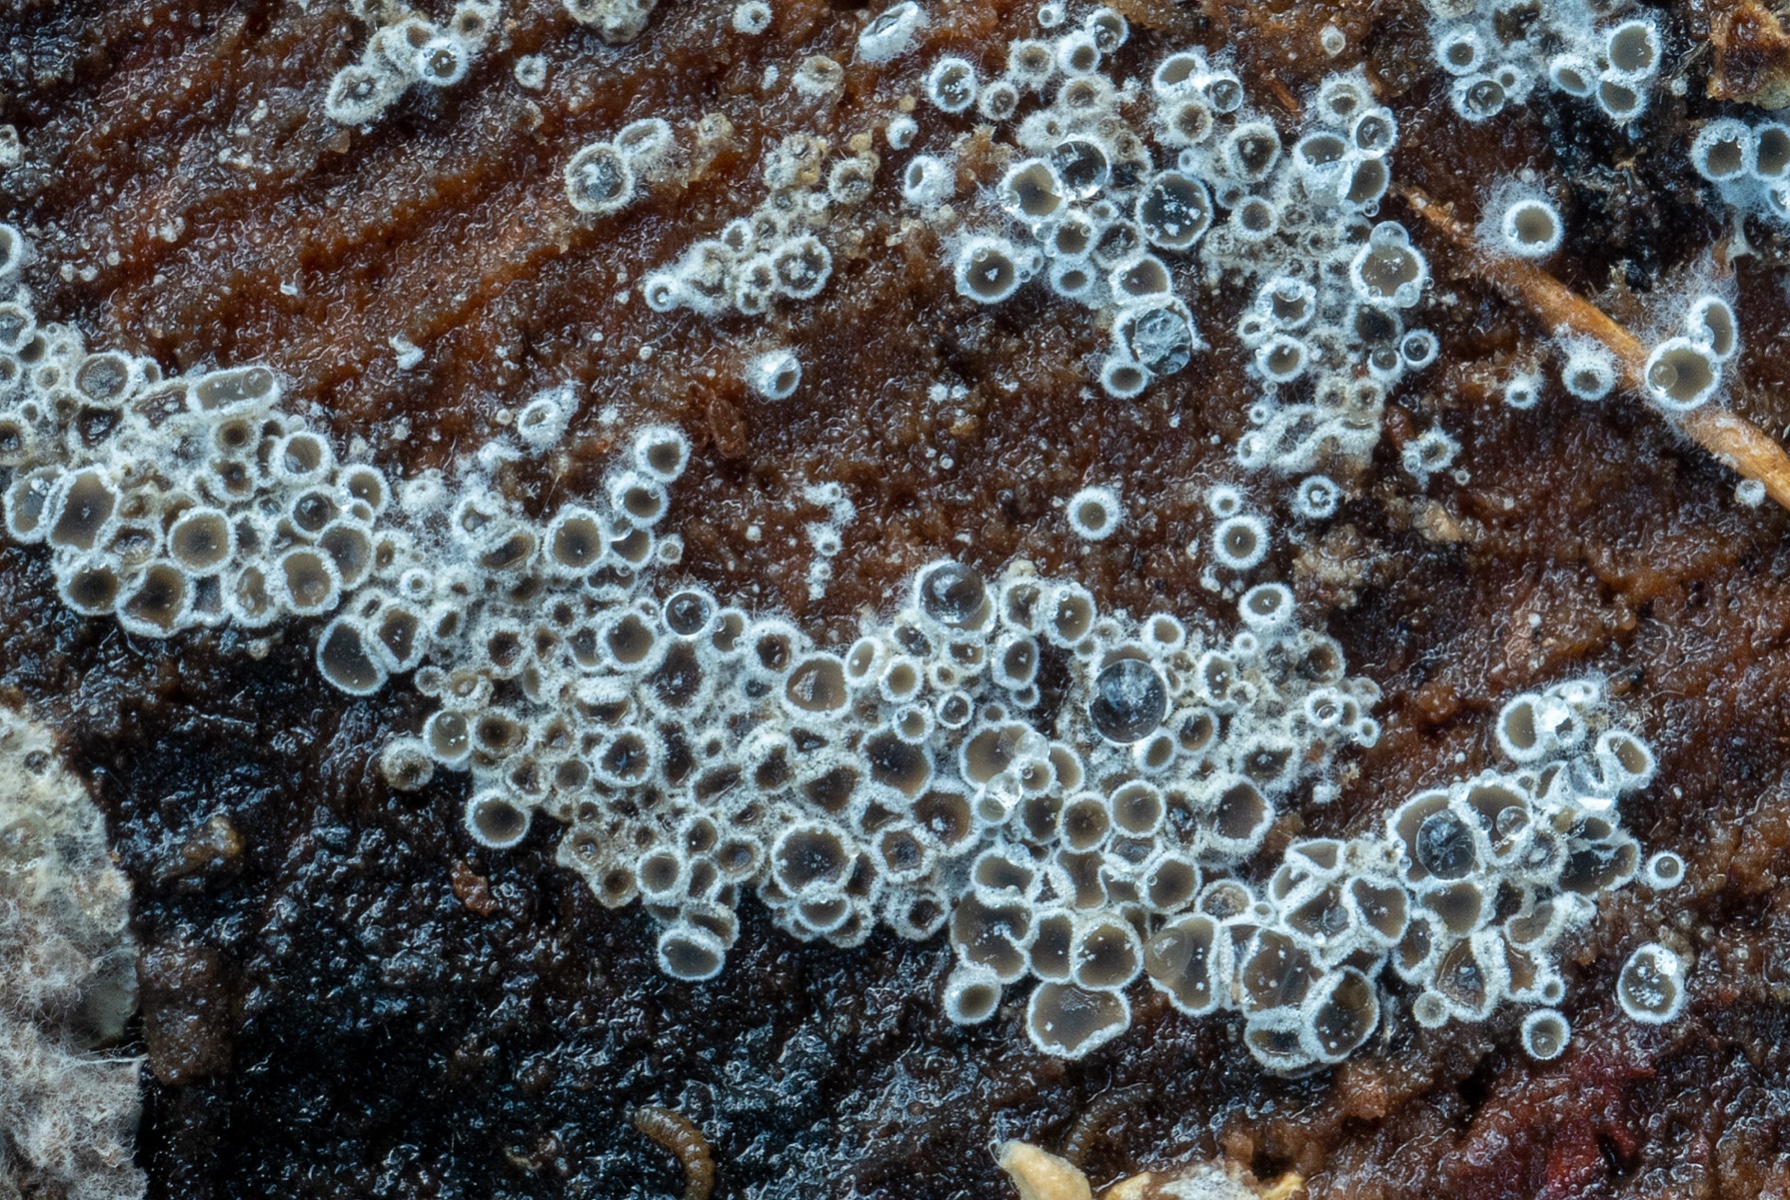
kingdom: Fungi
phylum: Ascomycota
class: Leotiomycetes
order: Helotiales
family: Arachnopezizaceae
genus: Eriopezia
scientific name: Eriopezia caesia
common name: ege-spindskive
